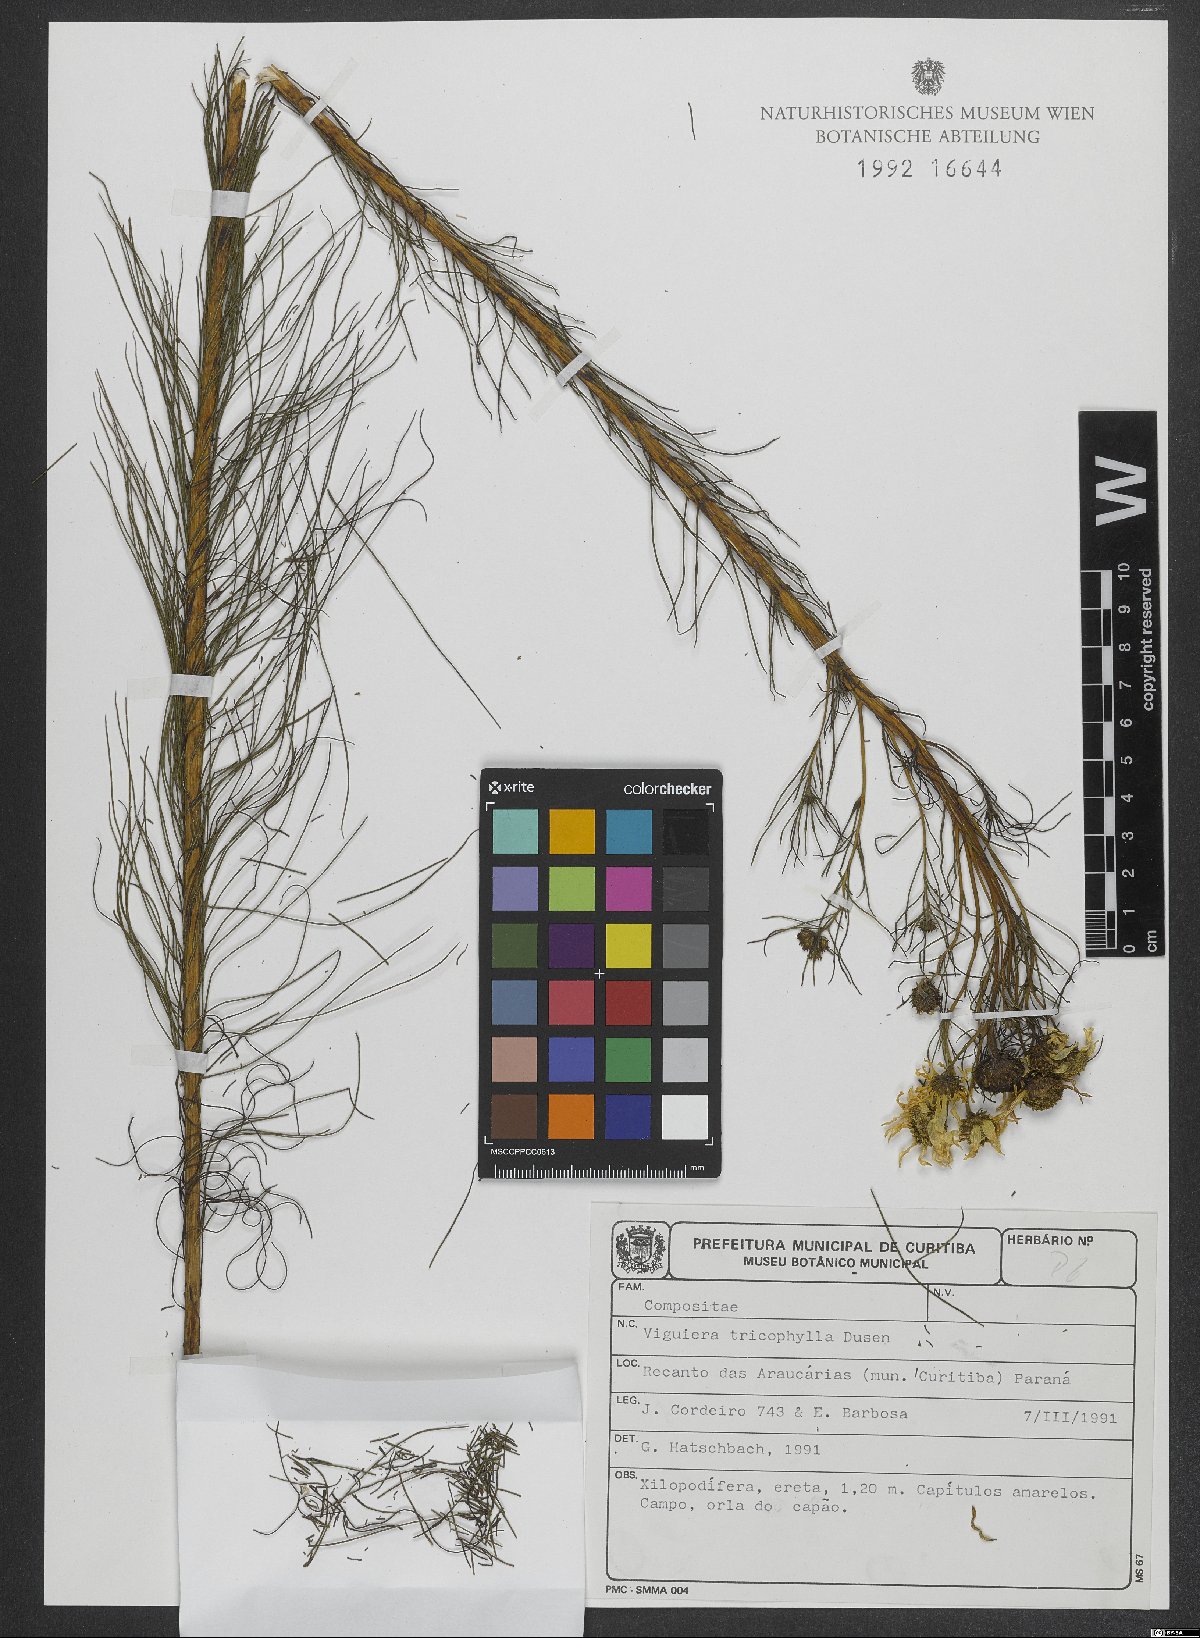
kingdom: Plantae
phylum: Tracheophyta
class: Magnoliopsida
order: Asterales
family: Asteraceae
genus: Aldama
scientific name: Aldama trichophylla
